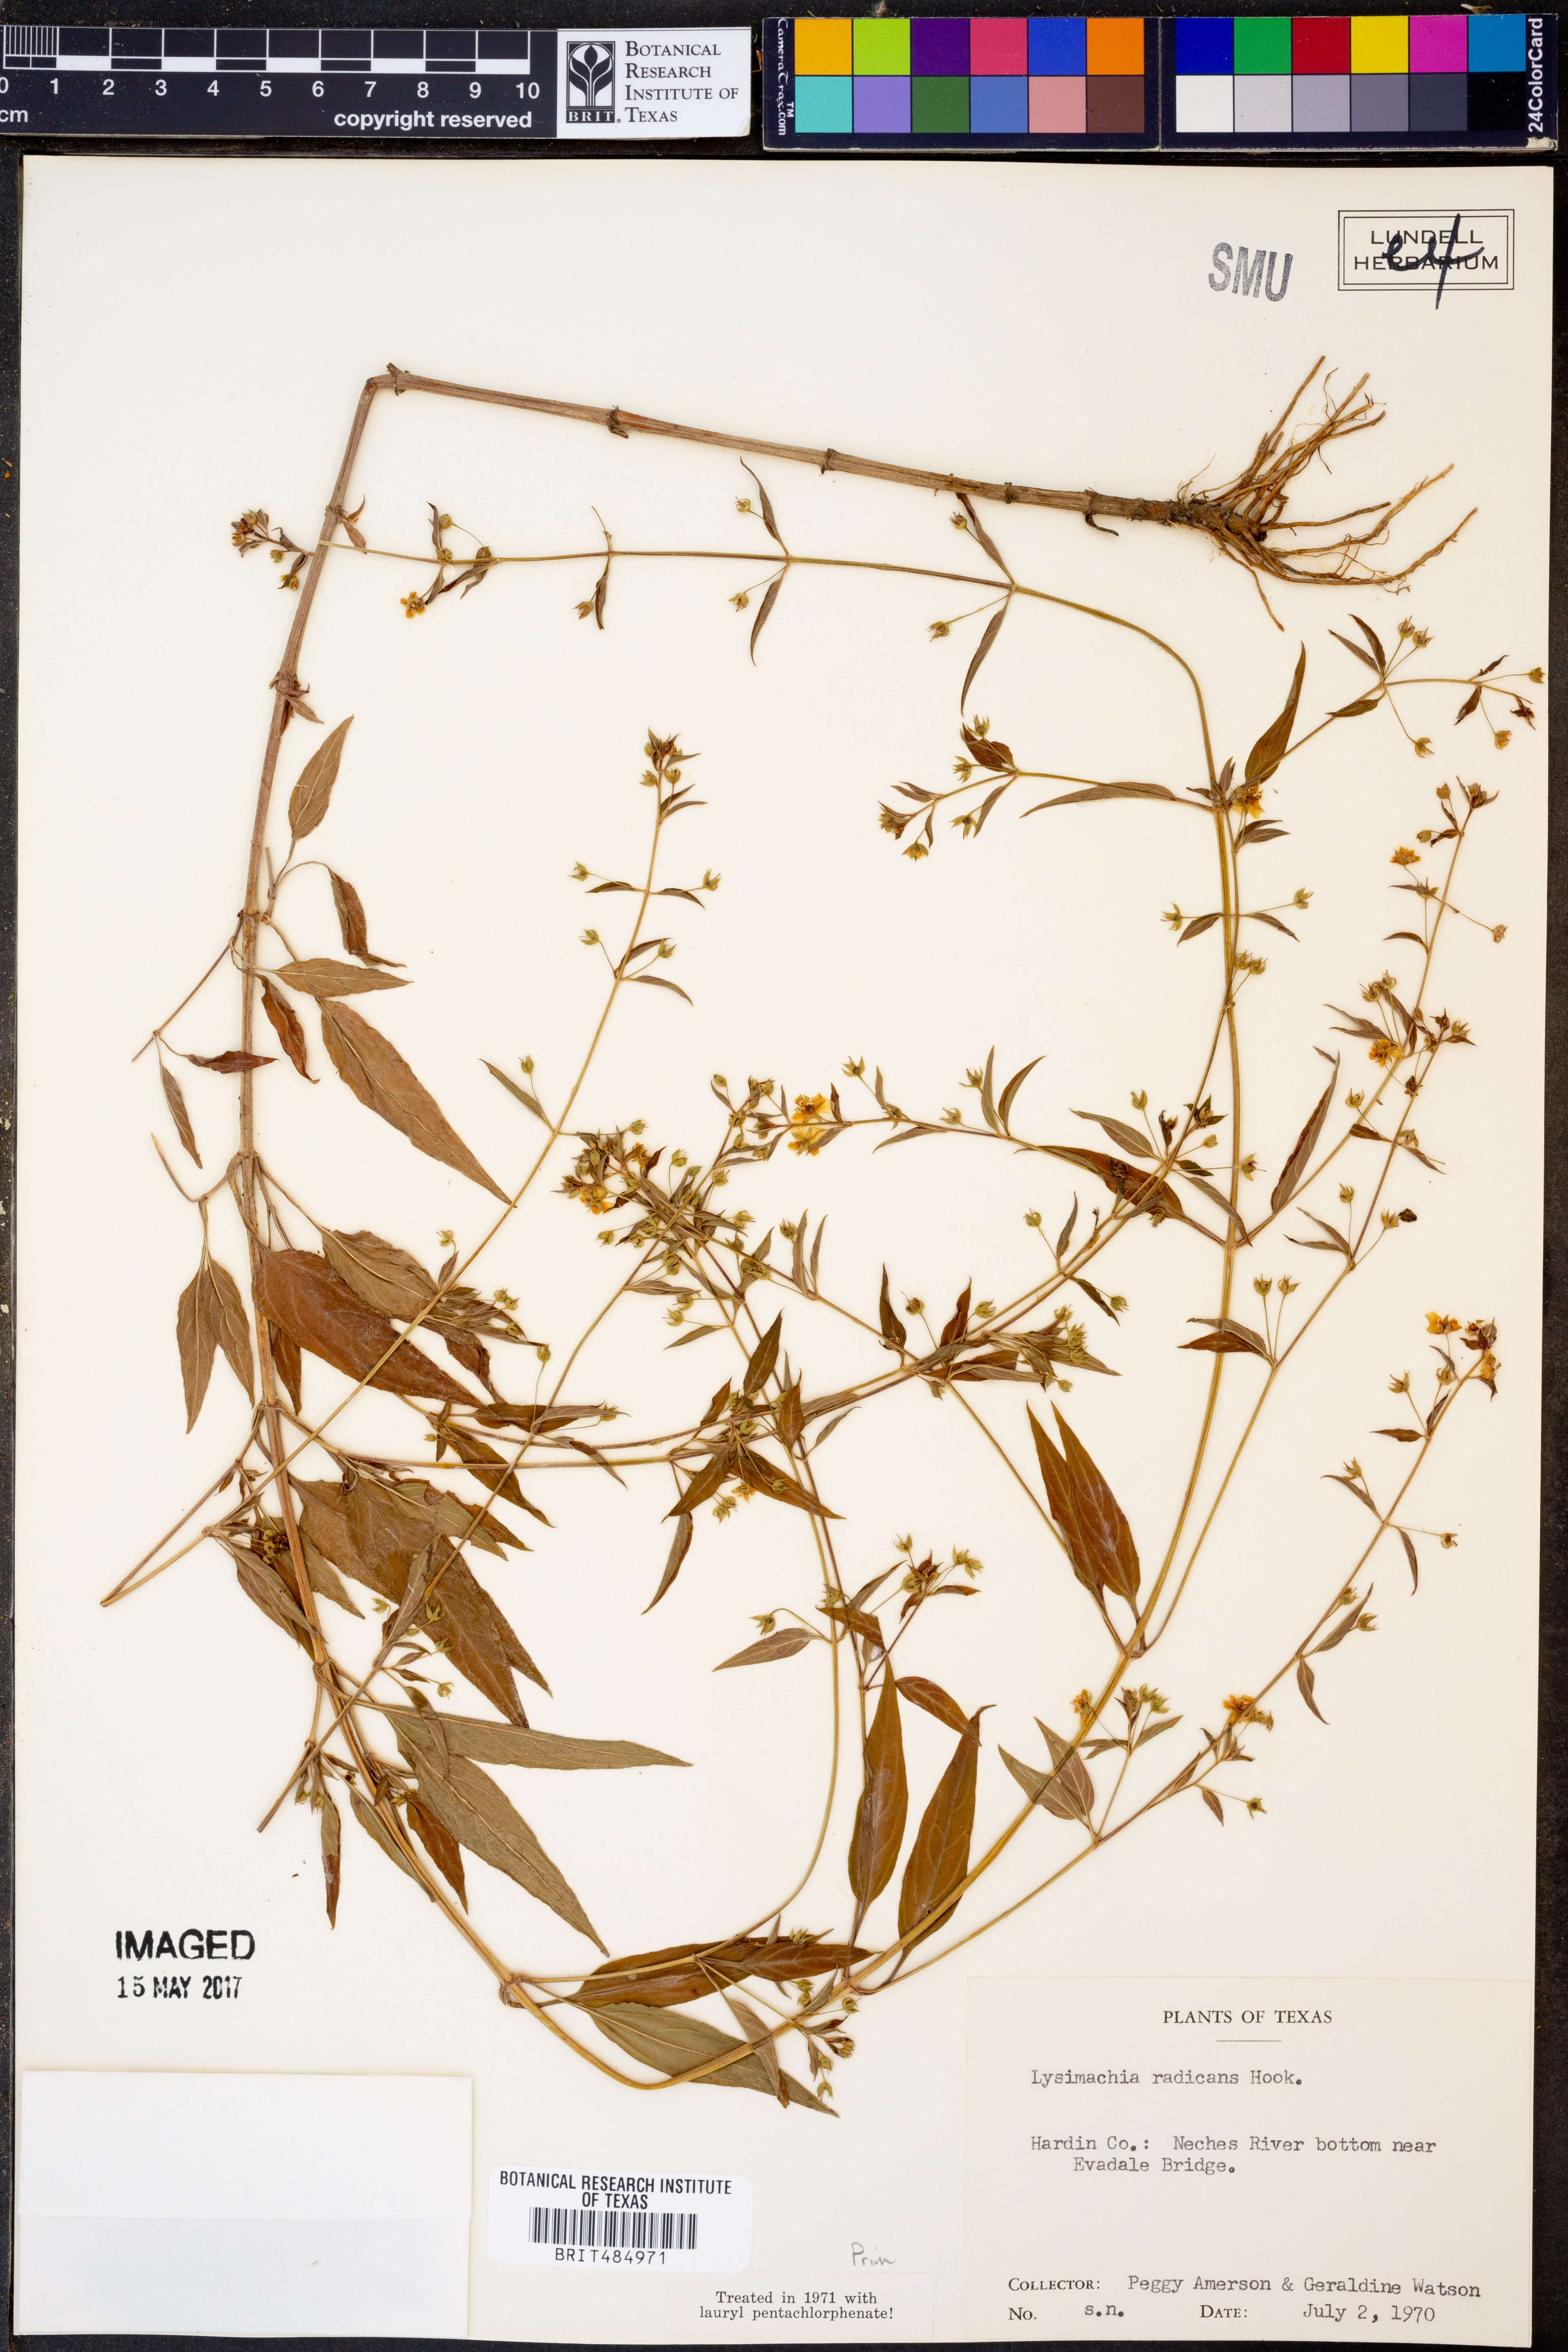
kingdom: Plantae
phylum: Tracheophyta
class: Magnoliopsida
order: Ericales
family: Primulaceae
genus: Lysimachia
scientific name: Lysimachia radicans
